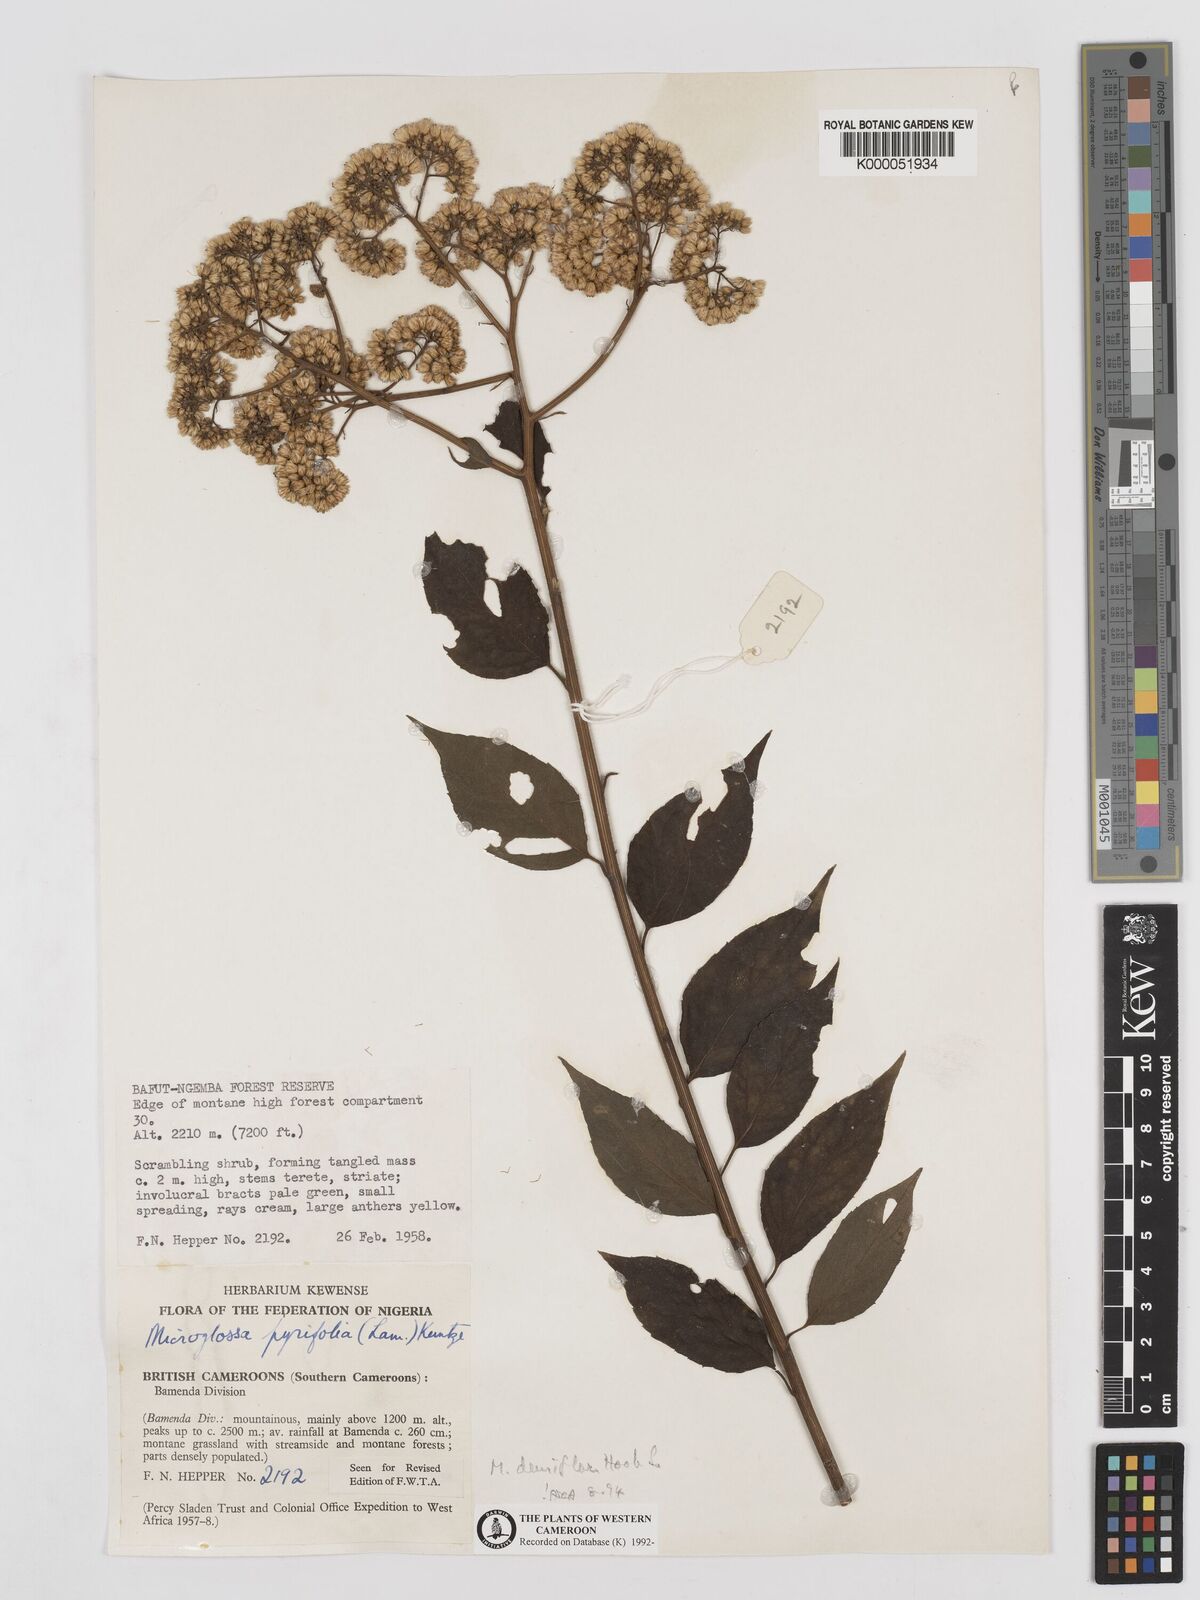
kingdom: Plantae
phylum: Tracheophyta
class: Magnoliopsida
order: Asterales
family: Asteraceae
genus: Microglossa
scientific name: Microglossa densiflora
